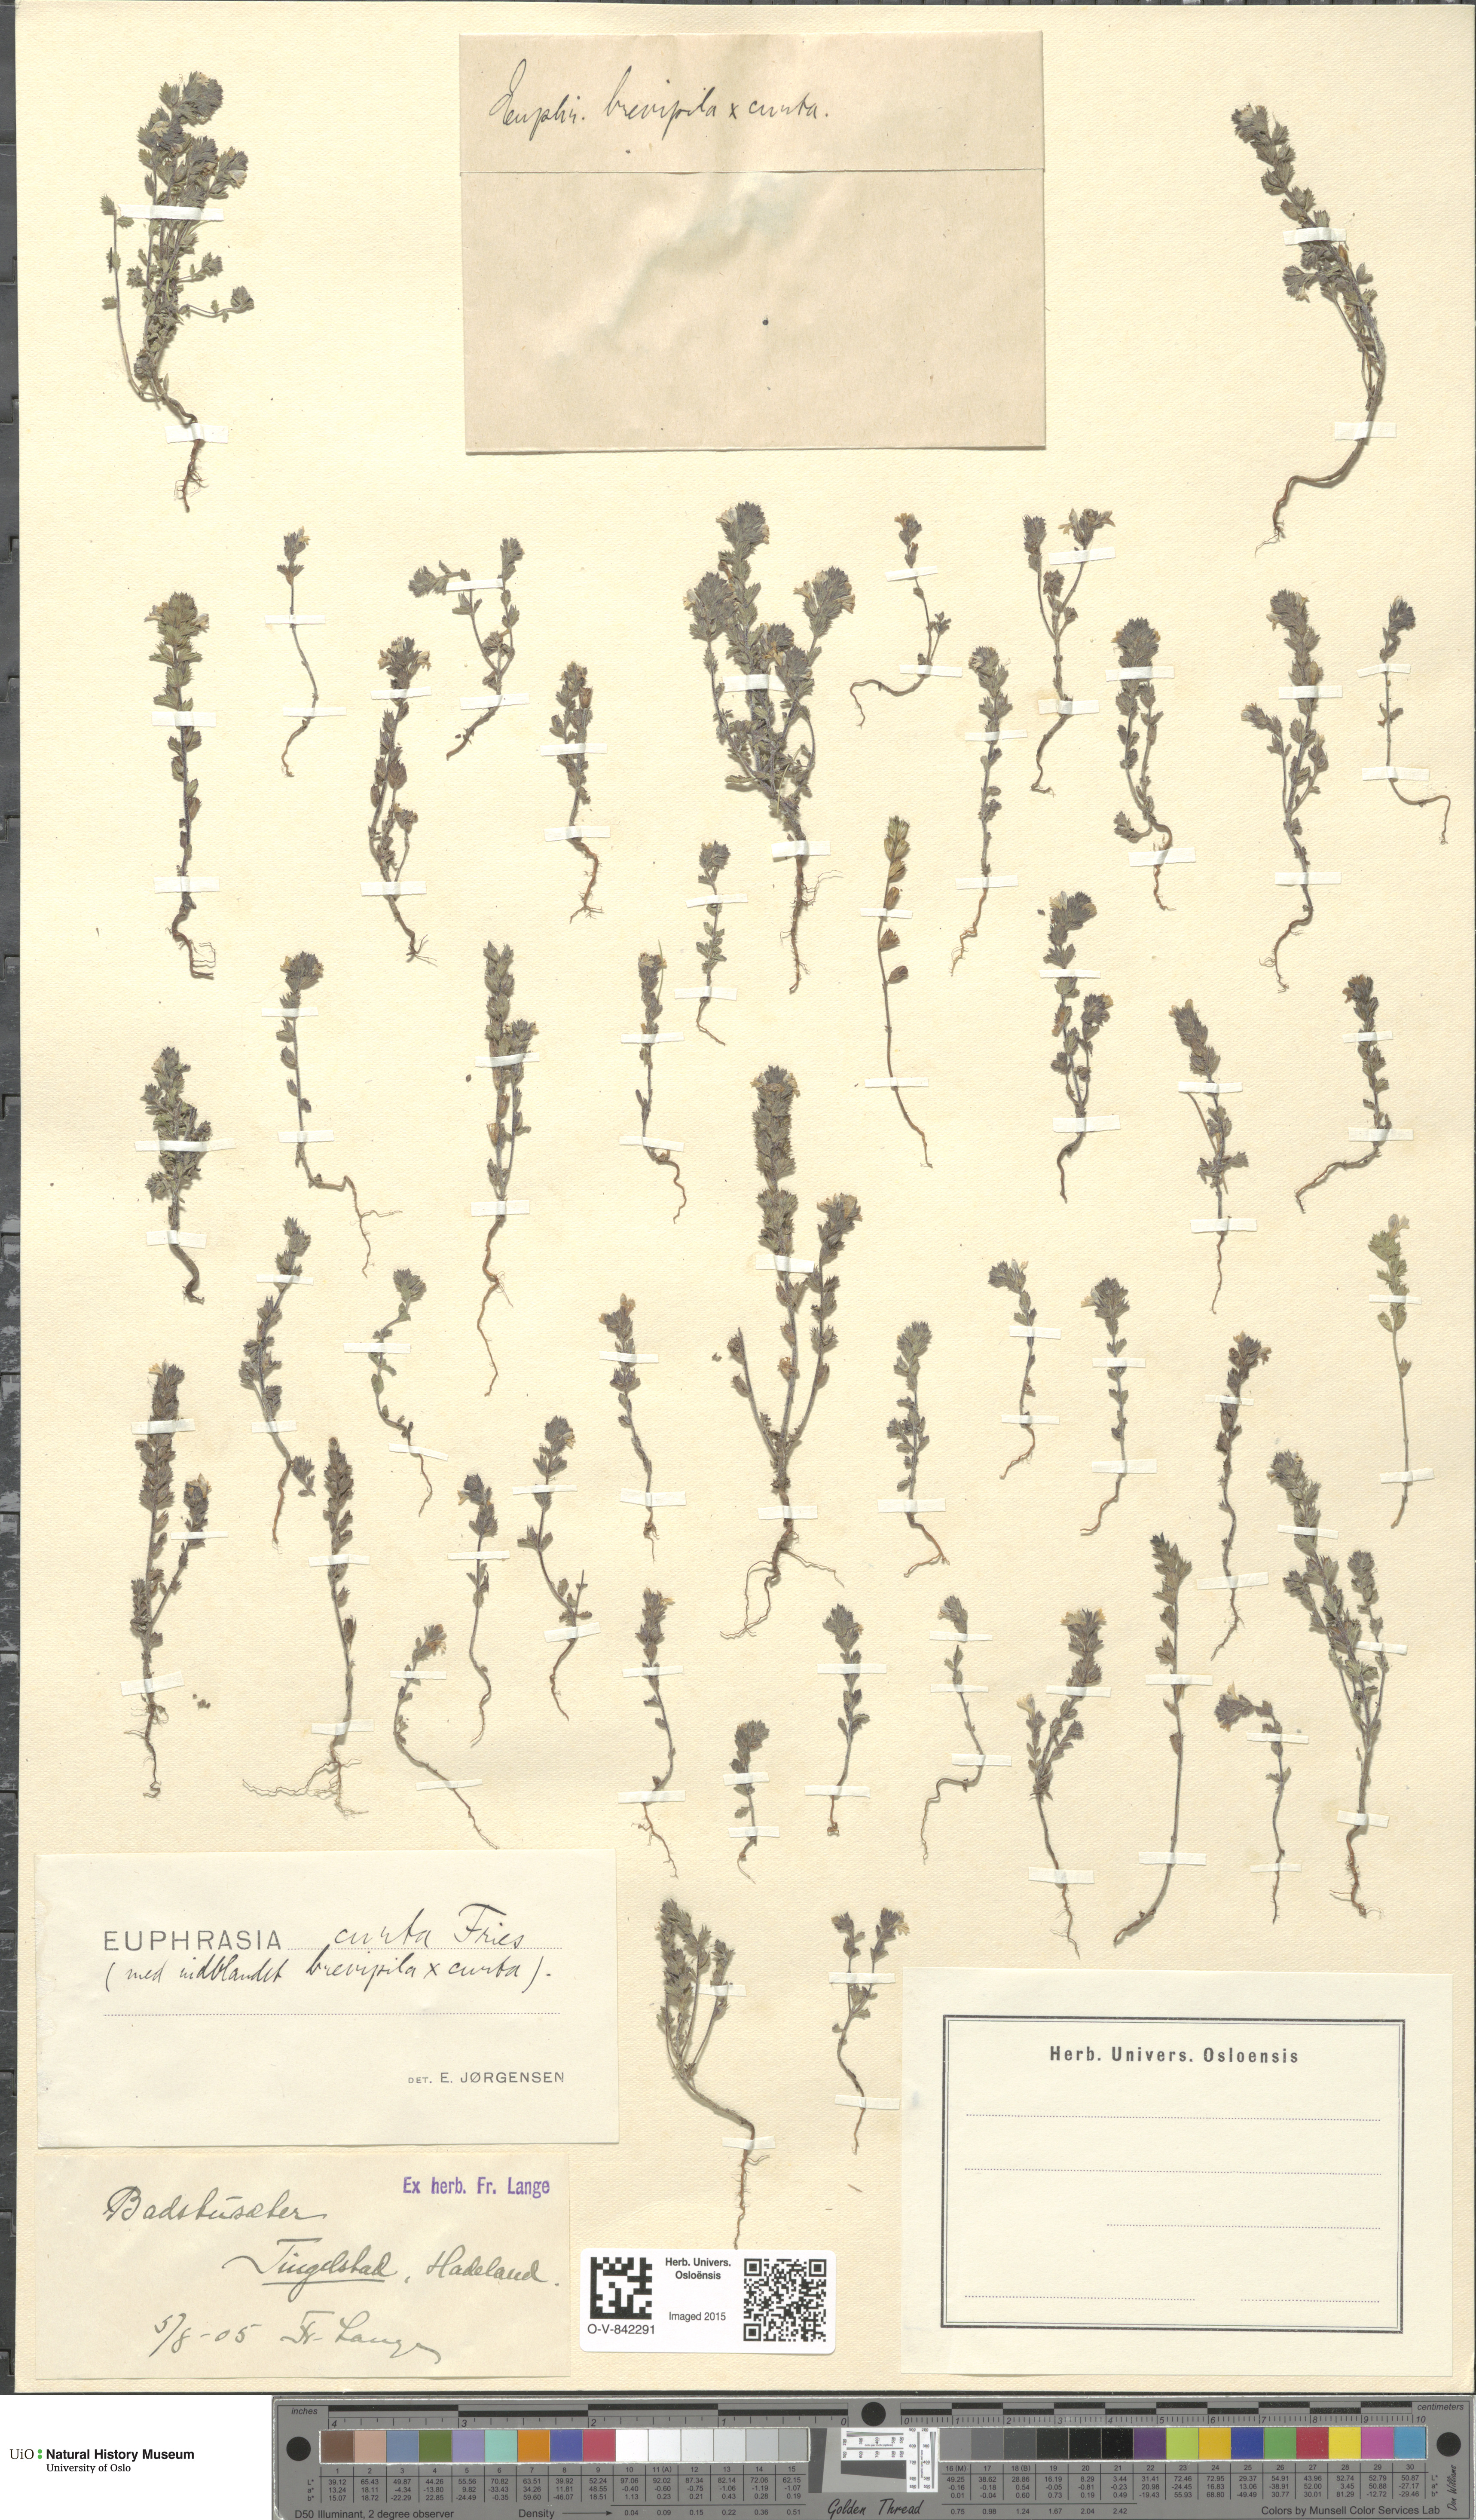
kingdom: Plantae
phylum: Tracheophyta
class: Magnoliopsida
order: Lamiales
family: Orobanchaceae
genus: Euphrasia
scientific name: Euphrasia micrantha
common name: Northern eyebright
